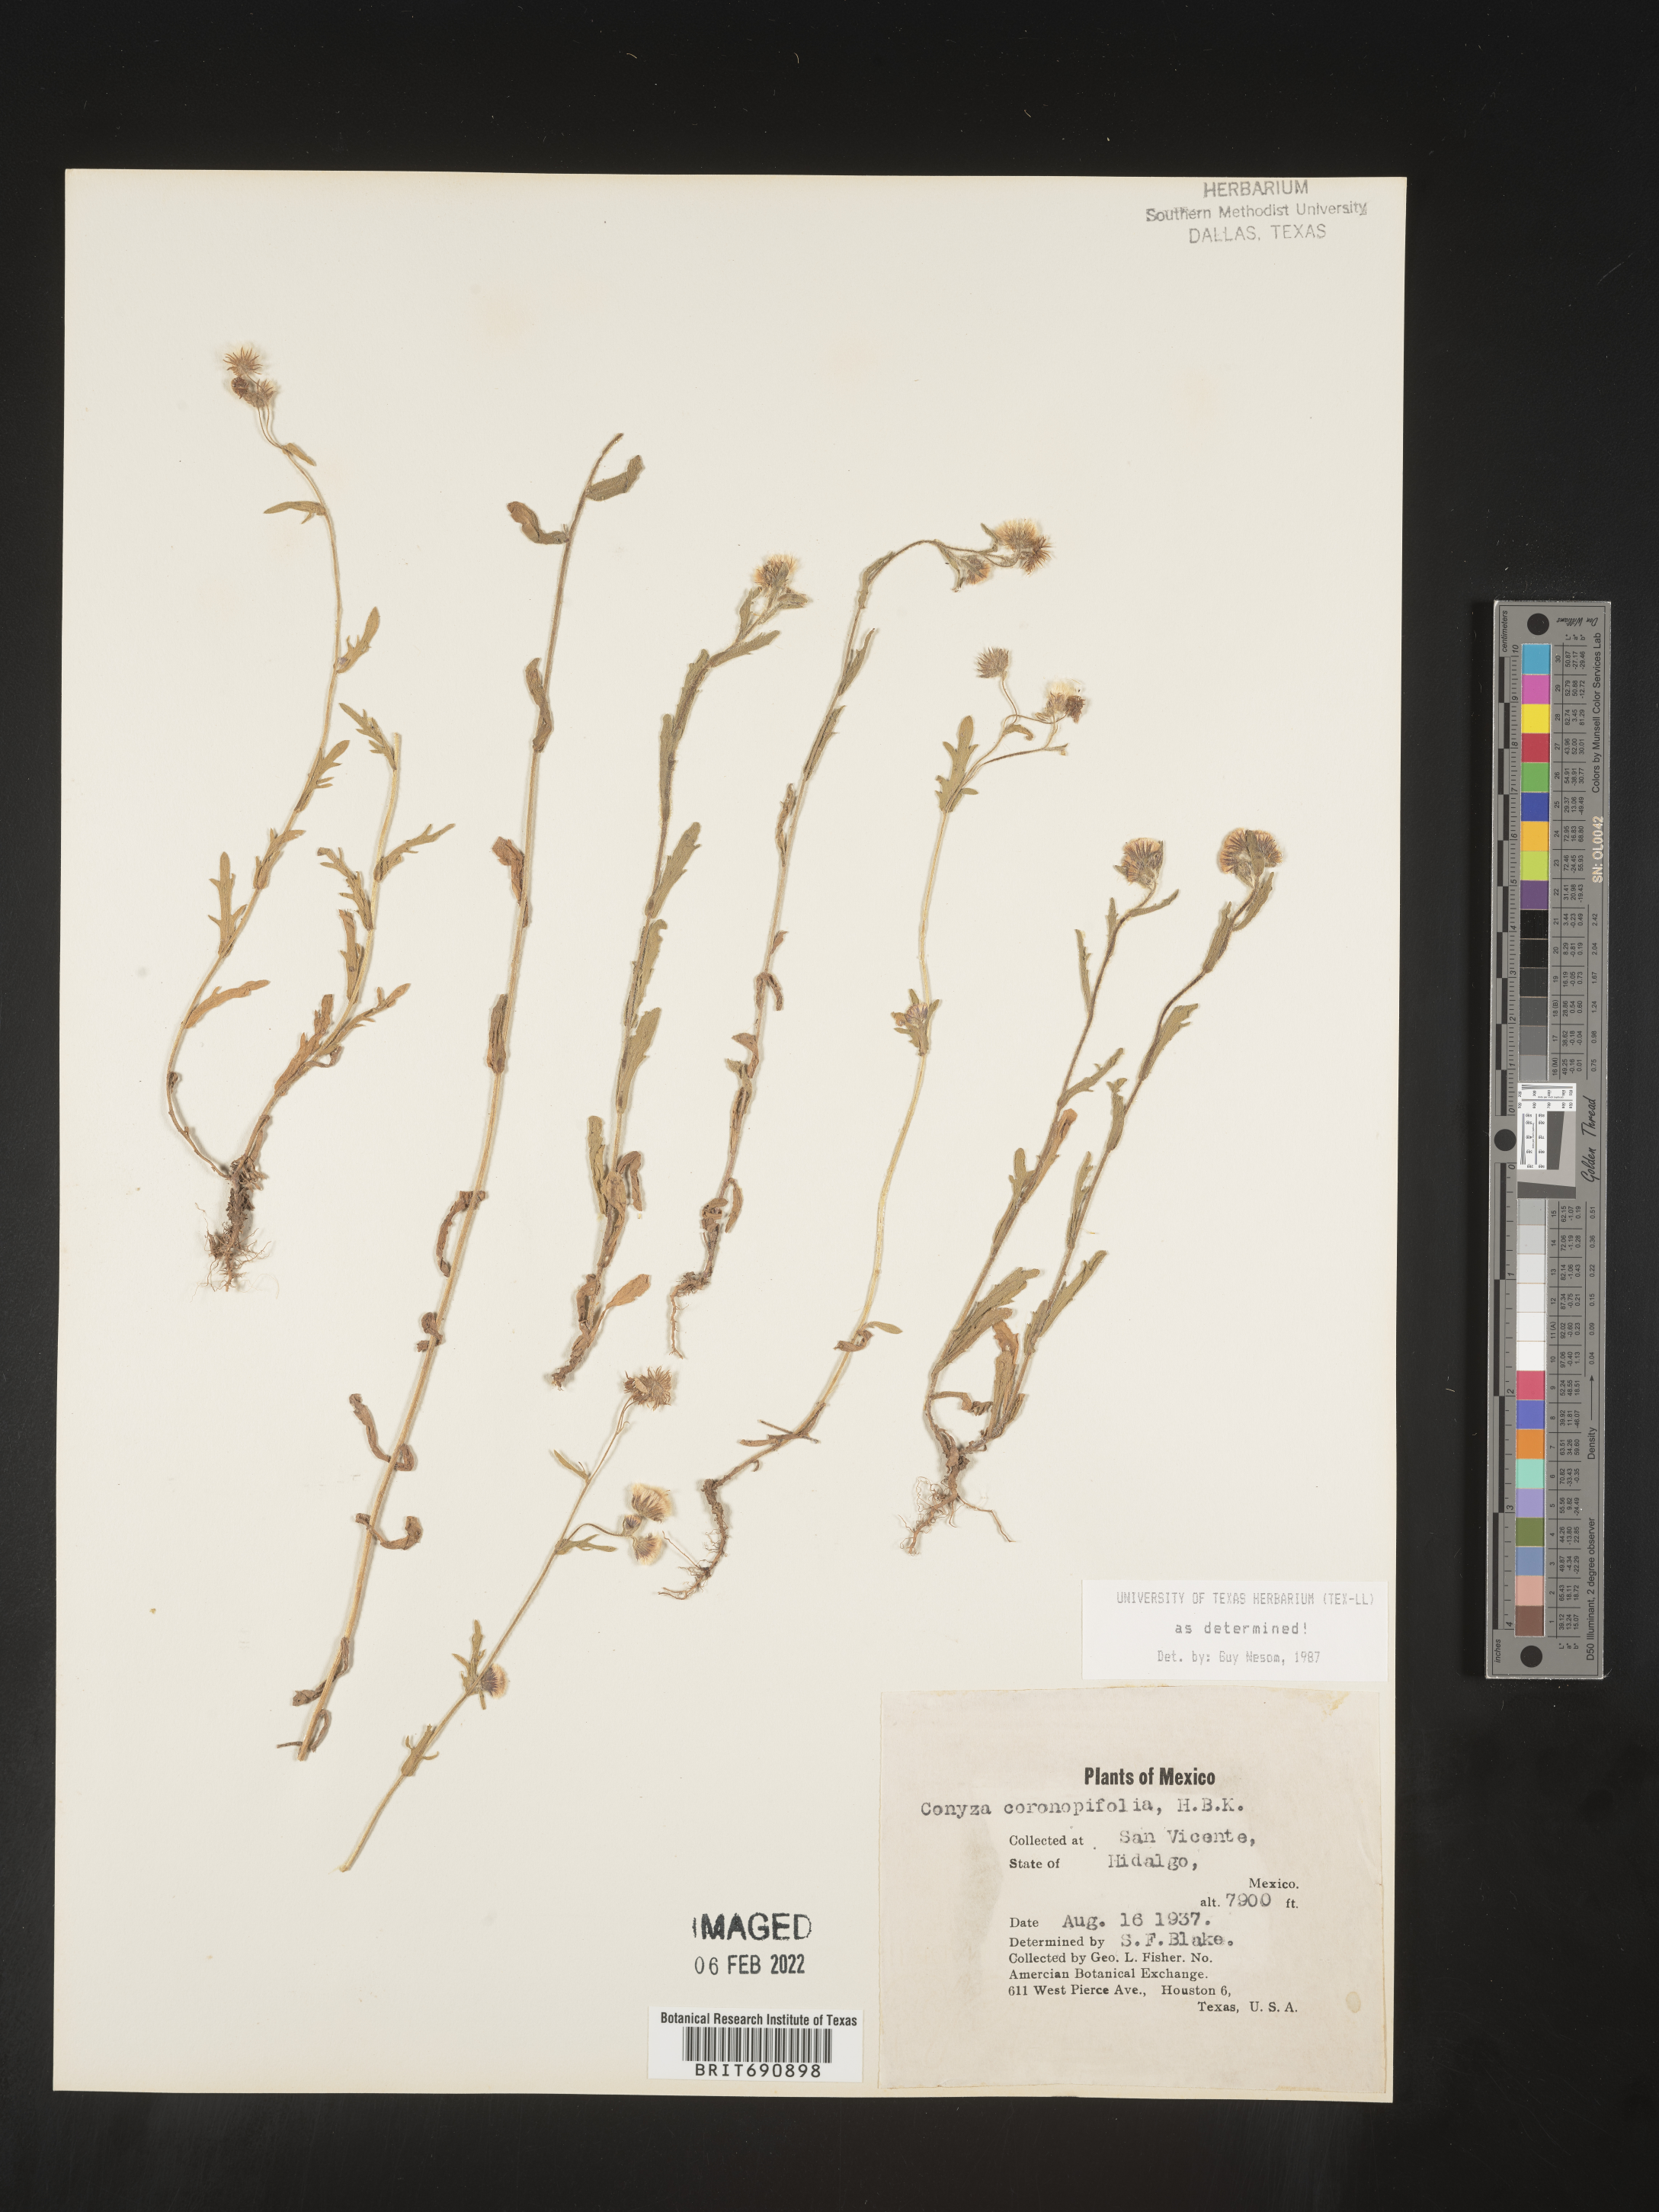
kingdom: Plantae
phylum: Tracheophyta
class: Magnoliopsida
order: Asterales
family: Asteraceae
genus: Erigeron
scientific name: Erigeron variifolius
